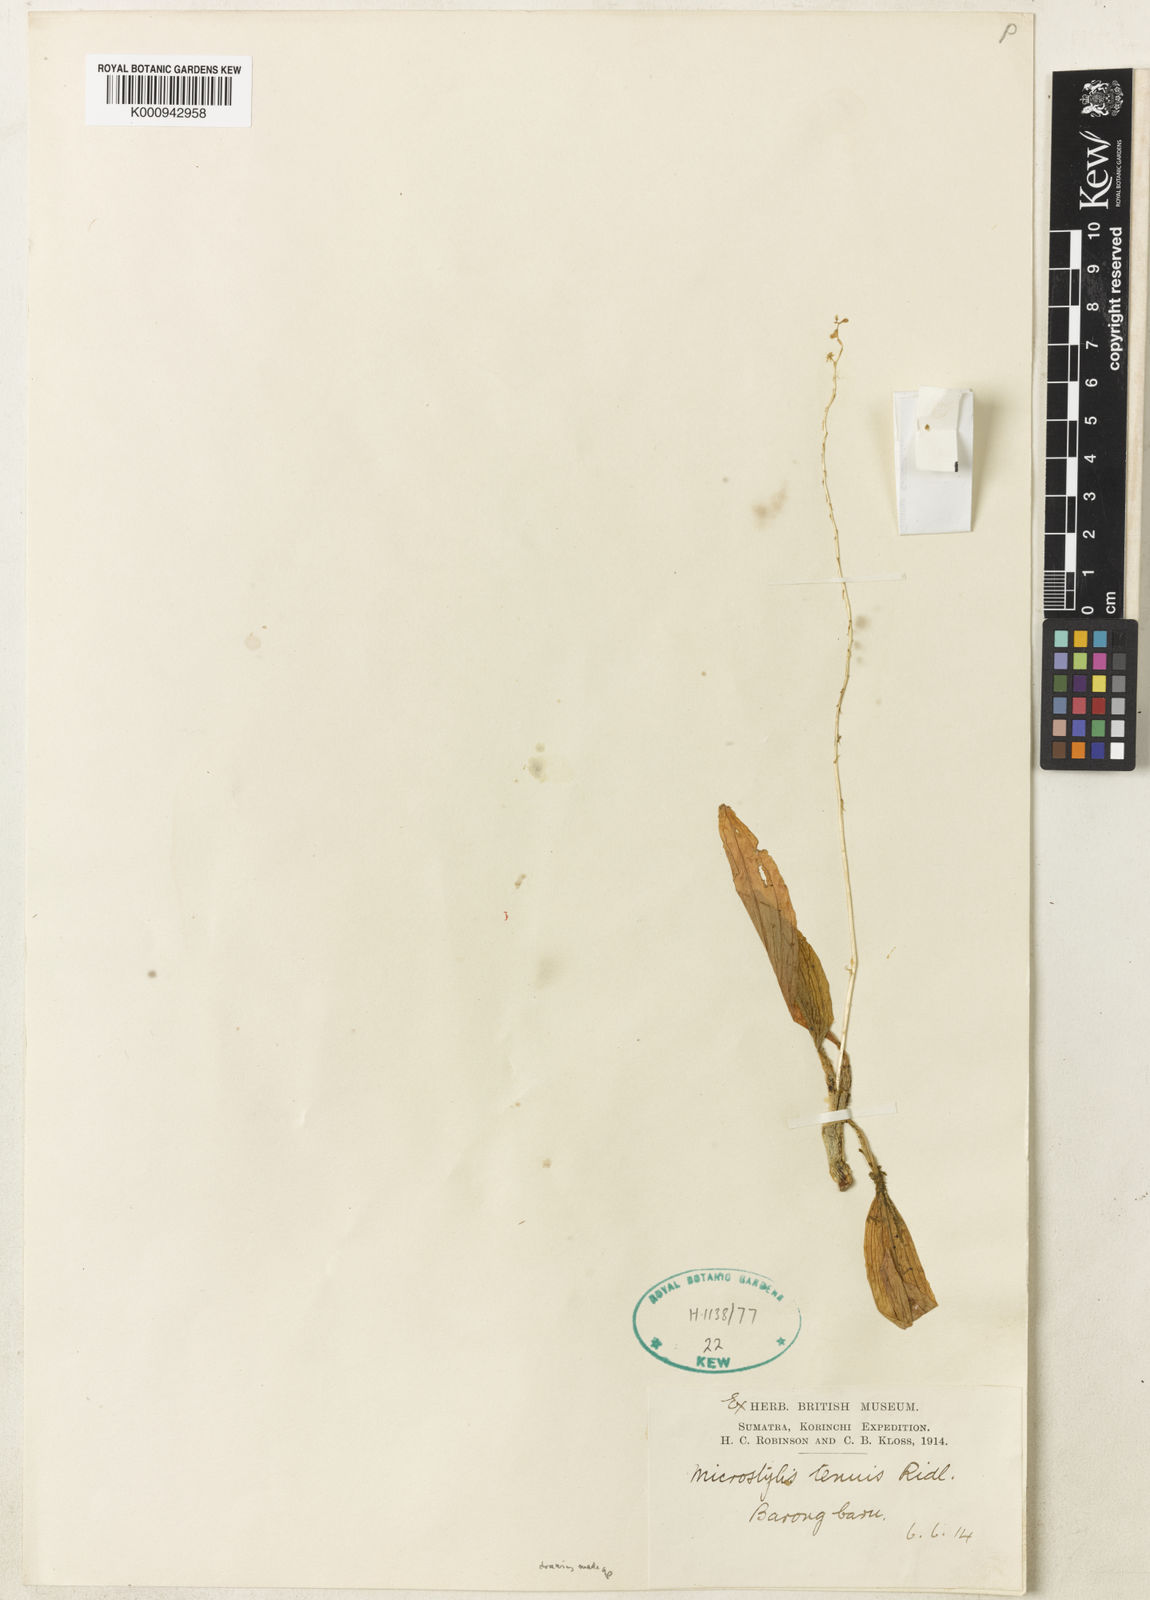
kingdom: Plantae
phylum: Tracheophyta
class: Liliopsida
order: Asparagales
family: Orchidaceae
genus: Crepidium
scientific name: Crepidium
